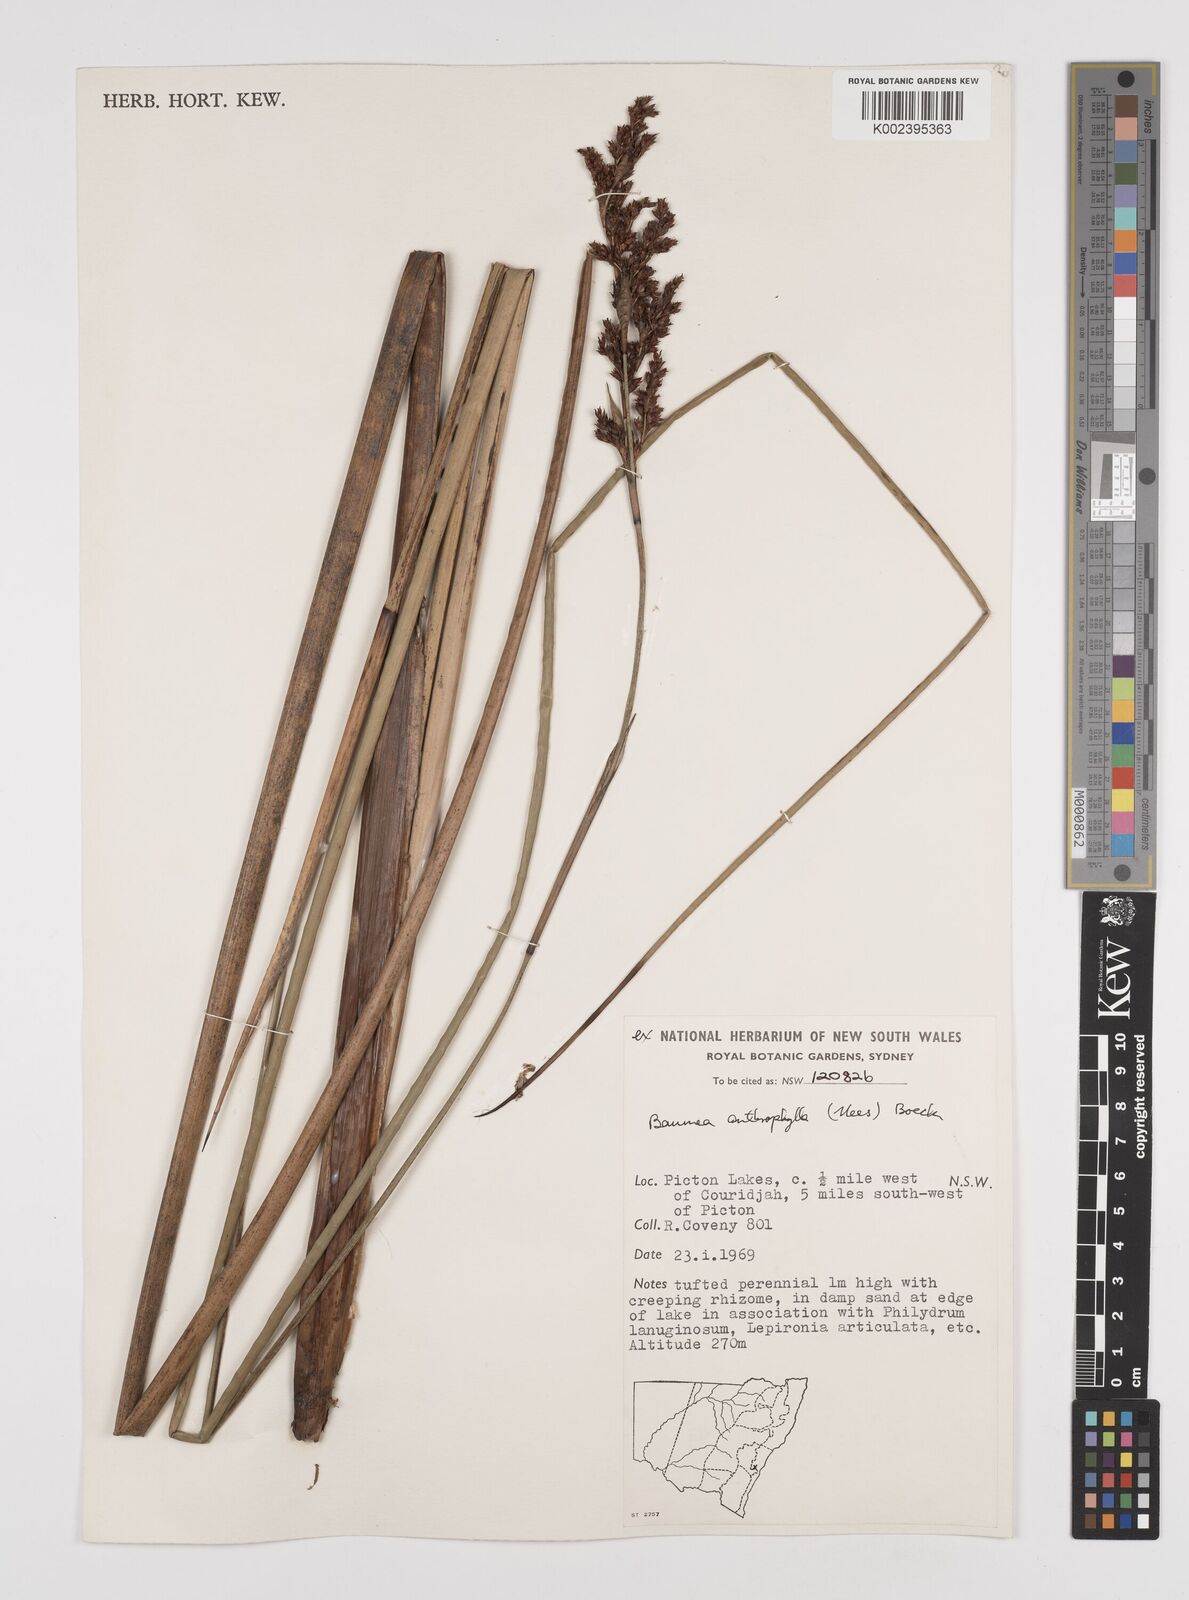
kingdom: Plantae
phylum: Tracheophyta
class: Liliopsida
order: Poales
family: Cyperaceae
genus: Machaerina
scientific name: Machaerina arthrophylla
